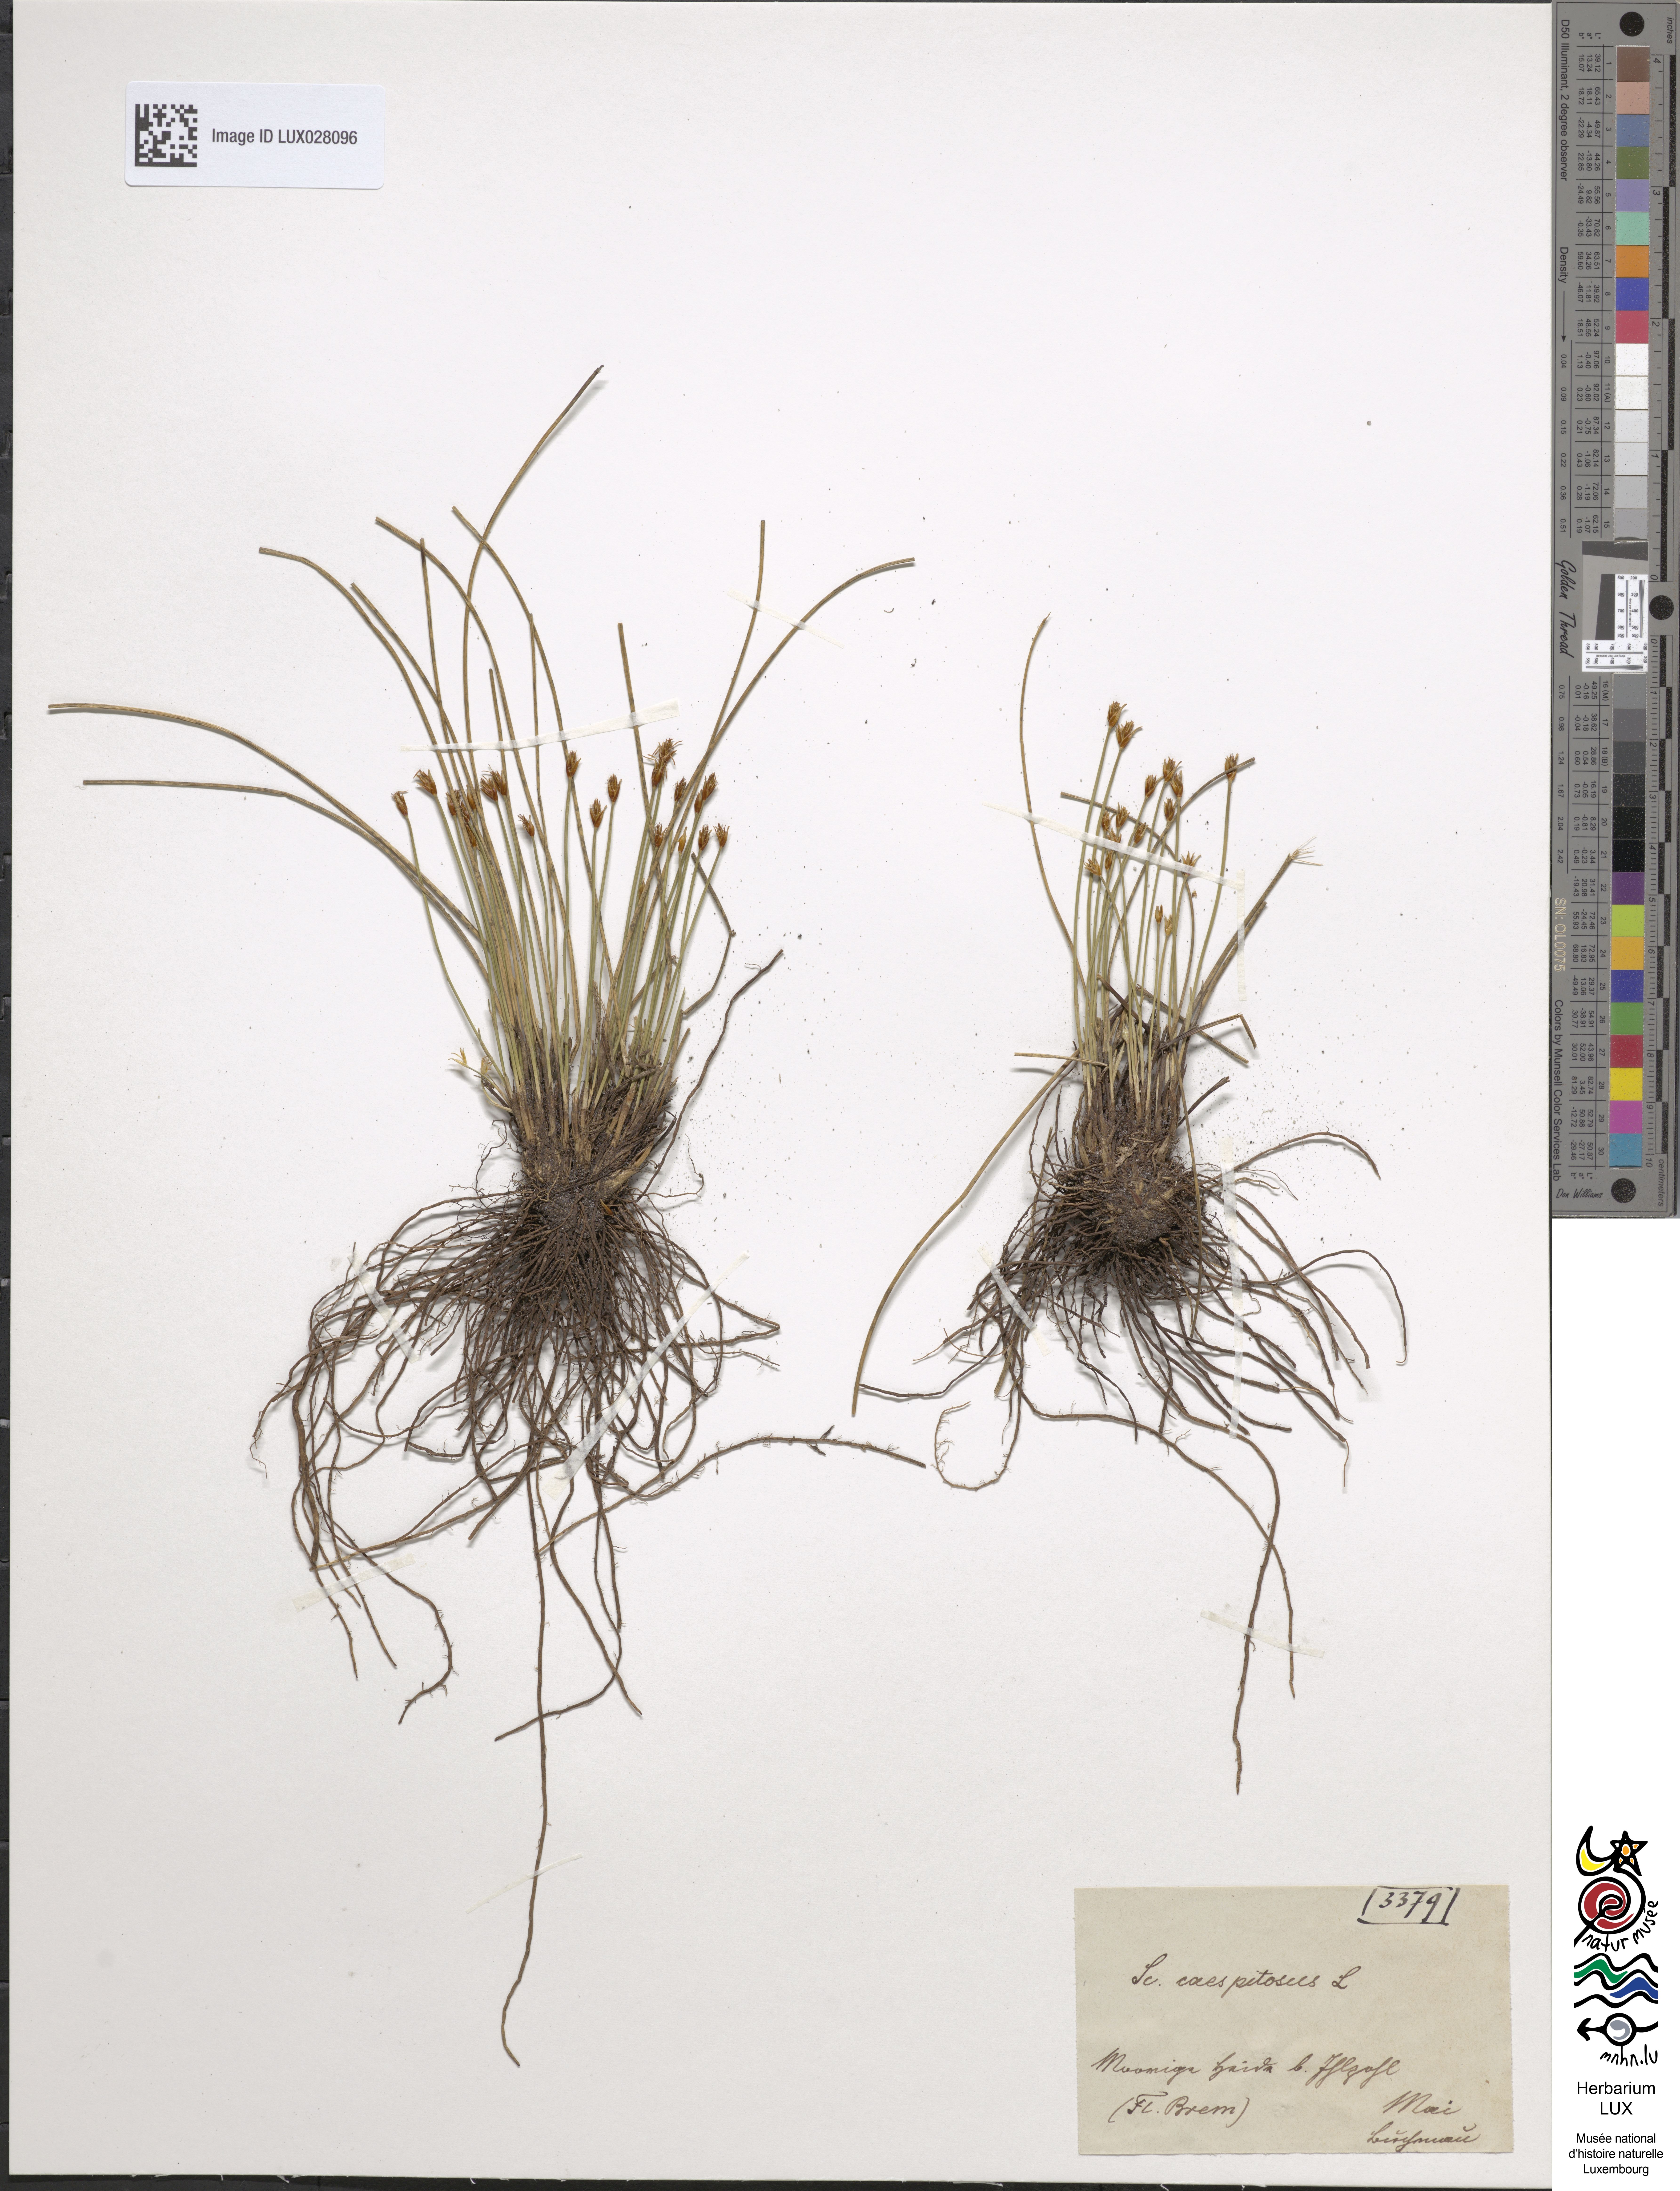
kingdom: Plantae
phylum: Tracheophyta
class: Liliopsida
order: Poales
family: Cyperaceae
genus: Trichophorum
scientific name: Trichophorum cespitosum
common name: Cespitose bulrush
